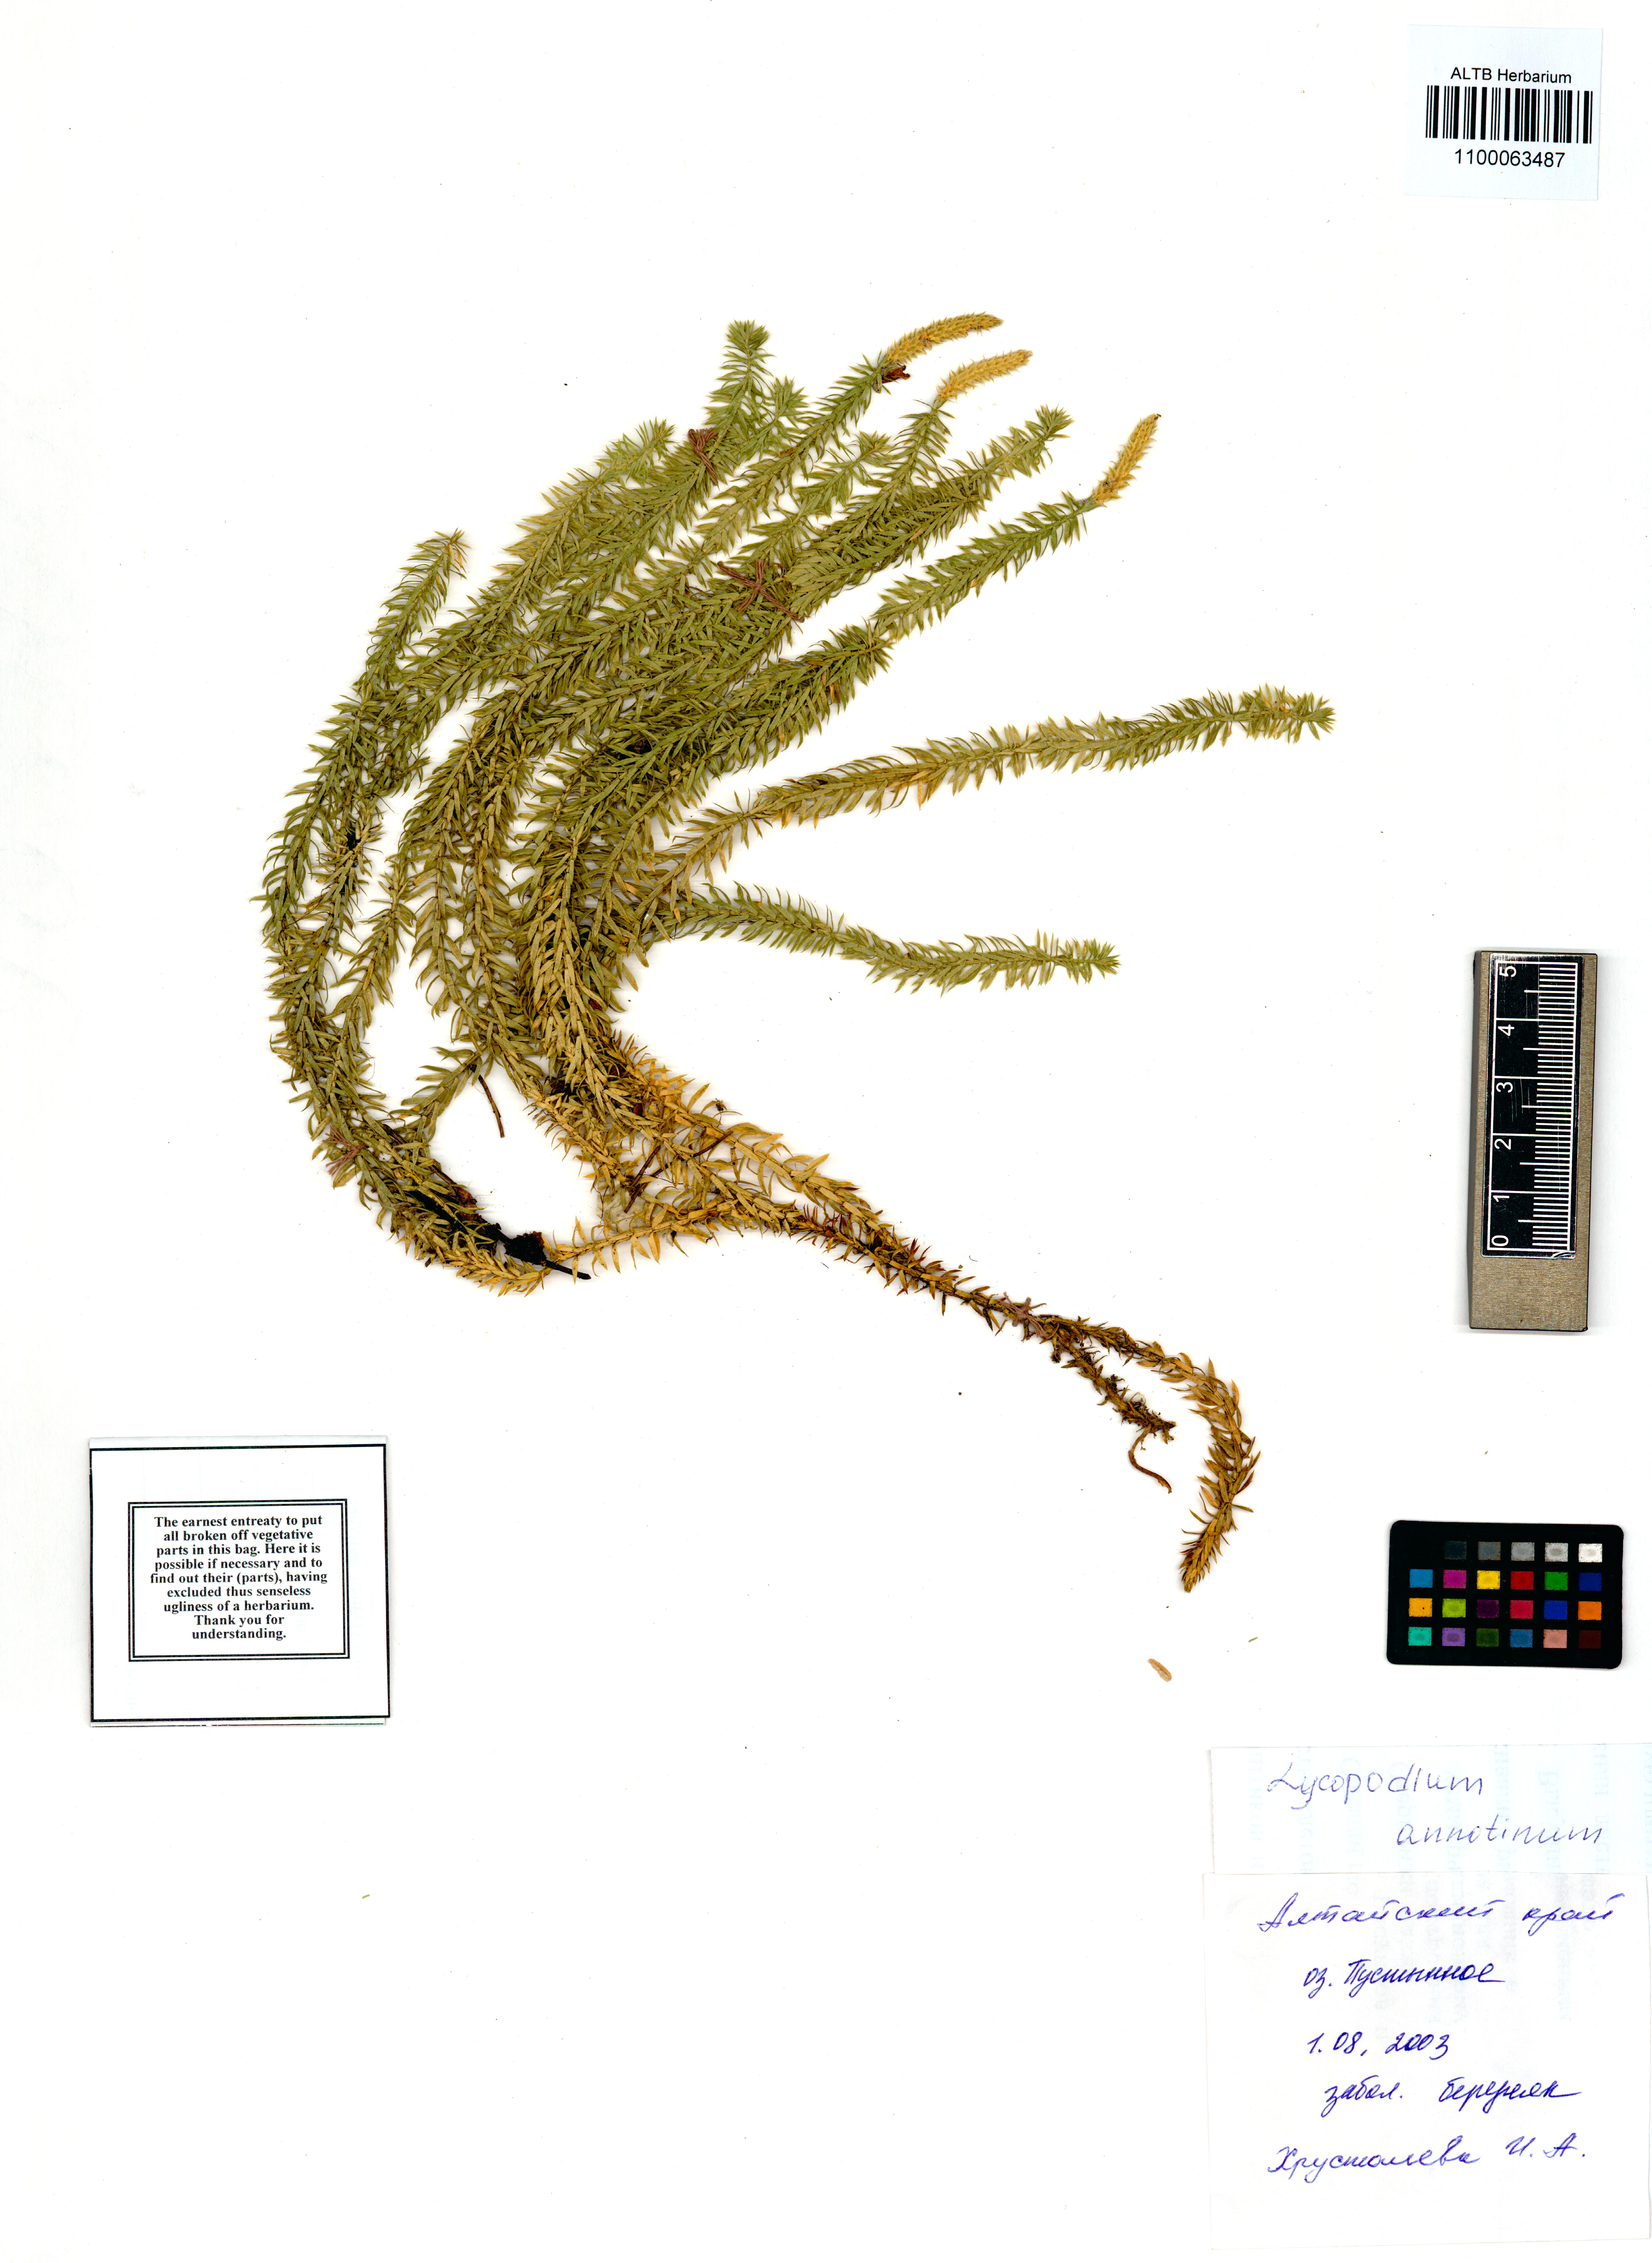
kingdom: Plantae
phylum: Tracheophyta
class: Lycopodiopsida
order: Lycopodiales
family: Lycopodiaceae
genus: Spinulum
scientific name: Spinulum annotinum
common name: Interrupted club-moss
